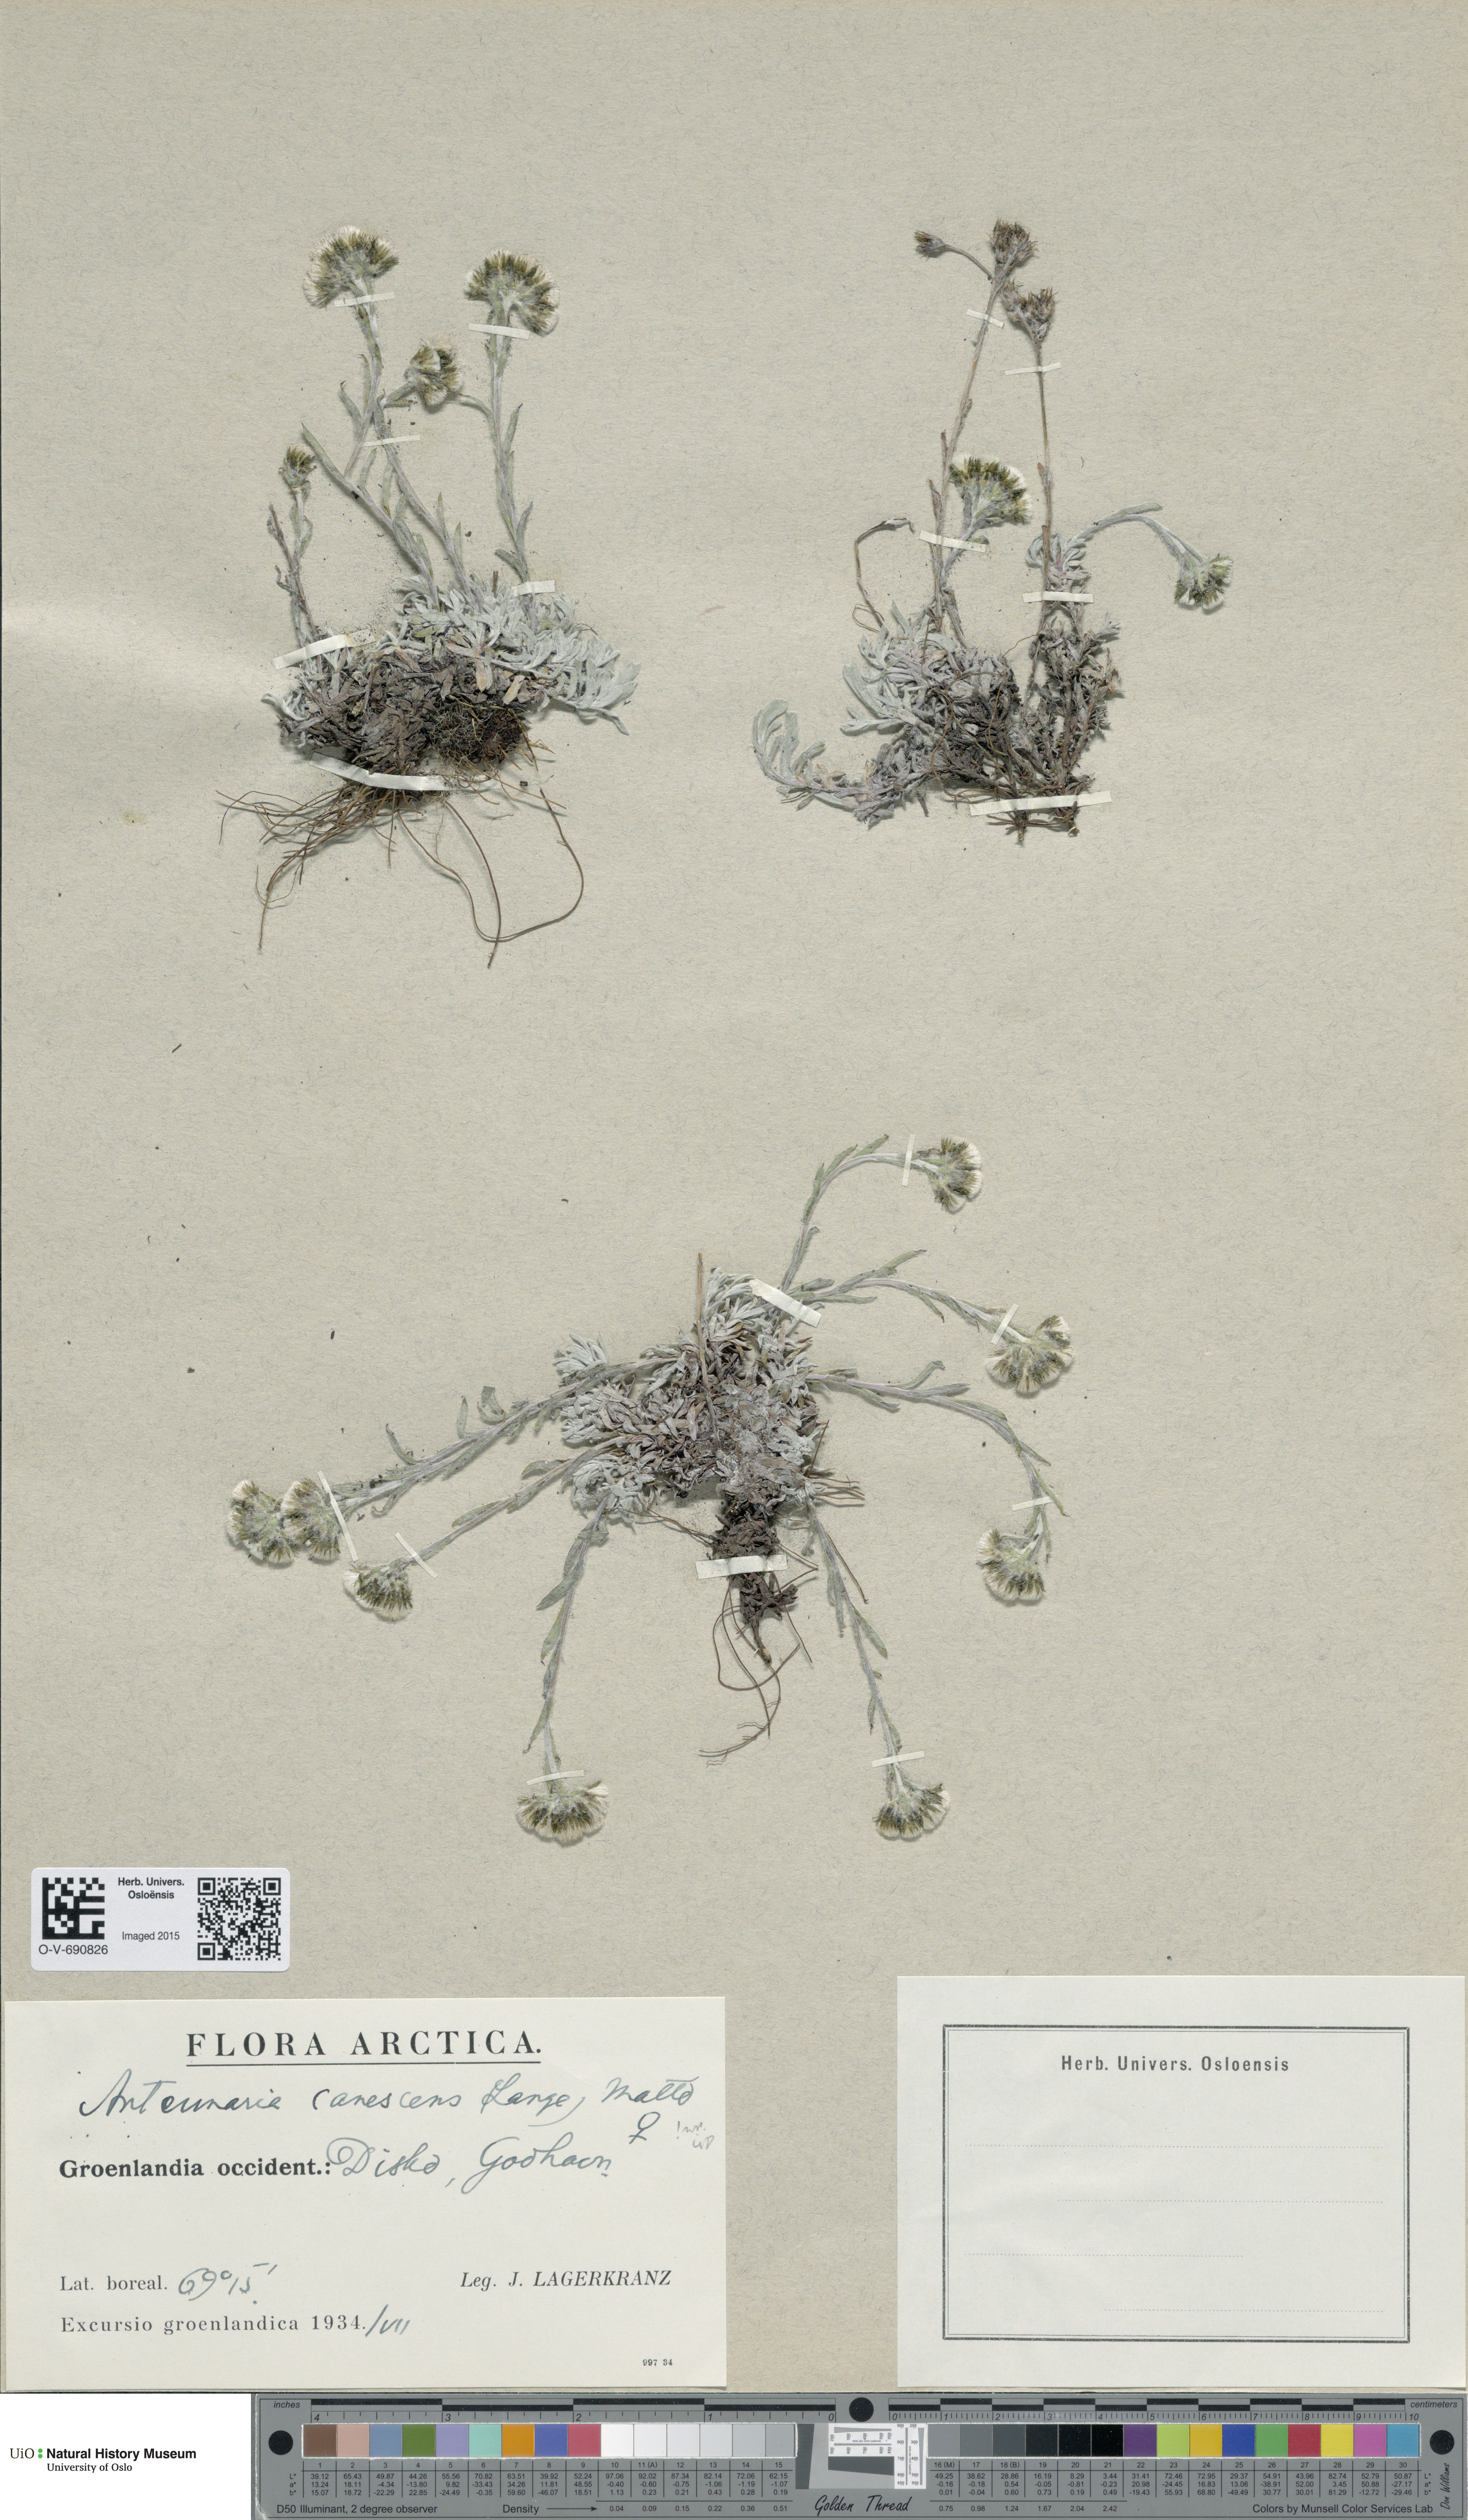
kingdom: Plantae
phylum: Tracheophyta
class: Magnoliopsida
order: Asterales
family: Asteraceae
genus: Antennaria
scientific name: Antennaria canescens
